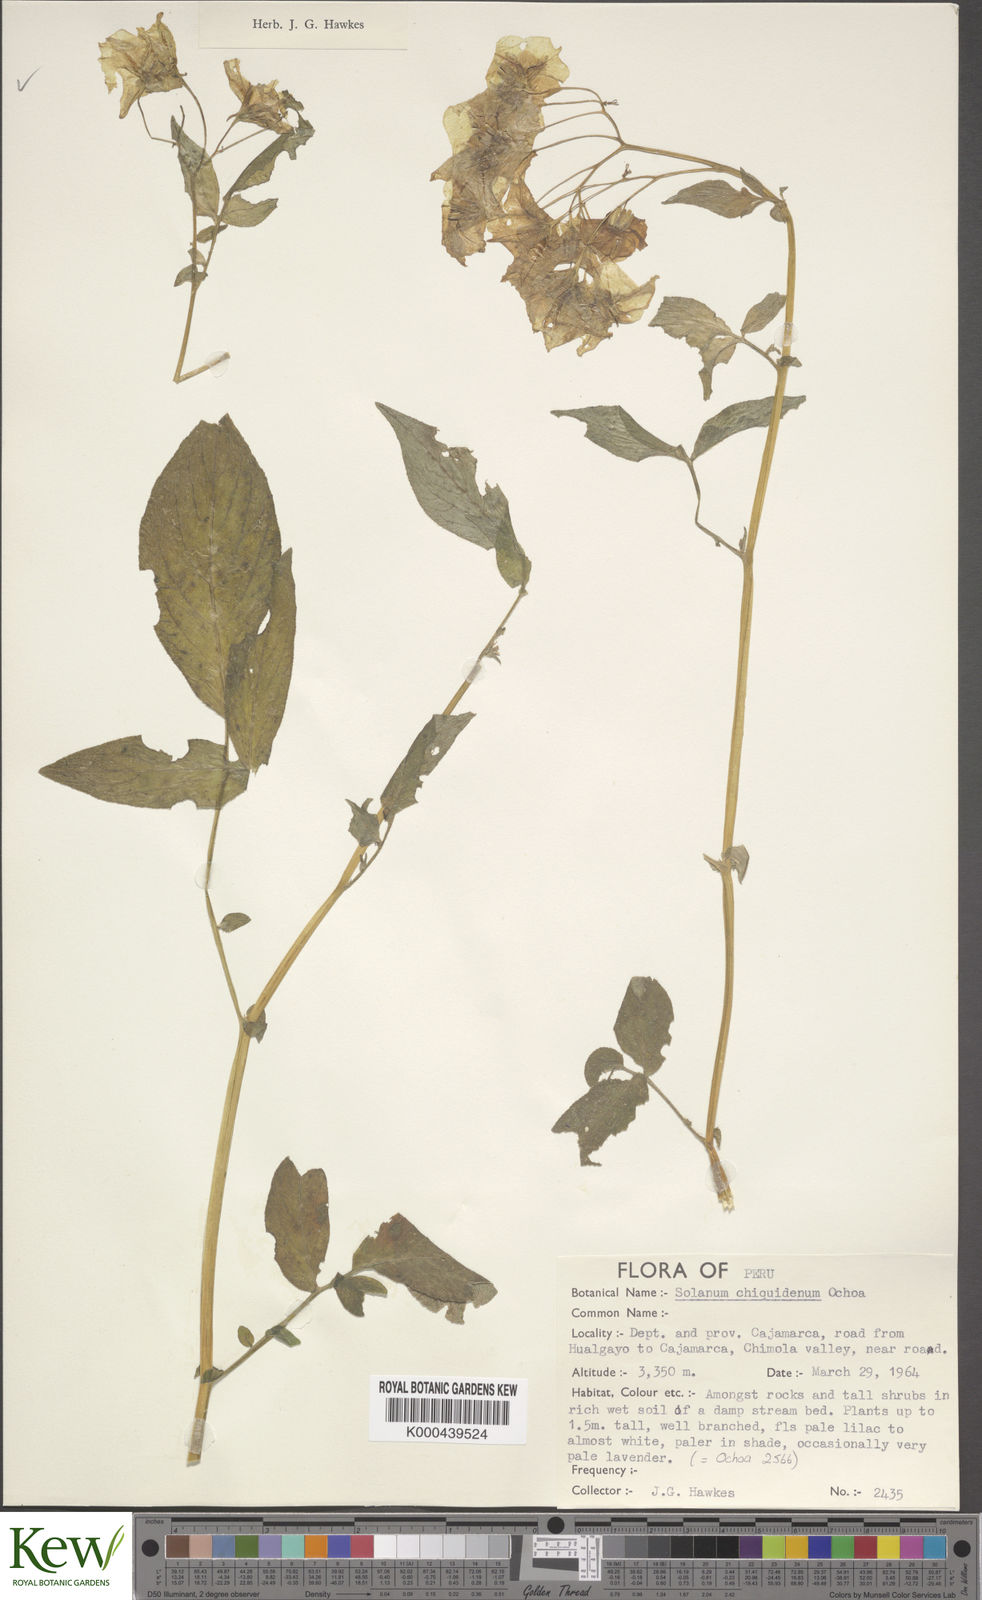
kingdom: Plantae
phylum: Tracheophyta
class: Magnoliopsida
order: Solanales
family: Solanaceae
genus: Solanum
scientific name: Solanum chiquidenum
